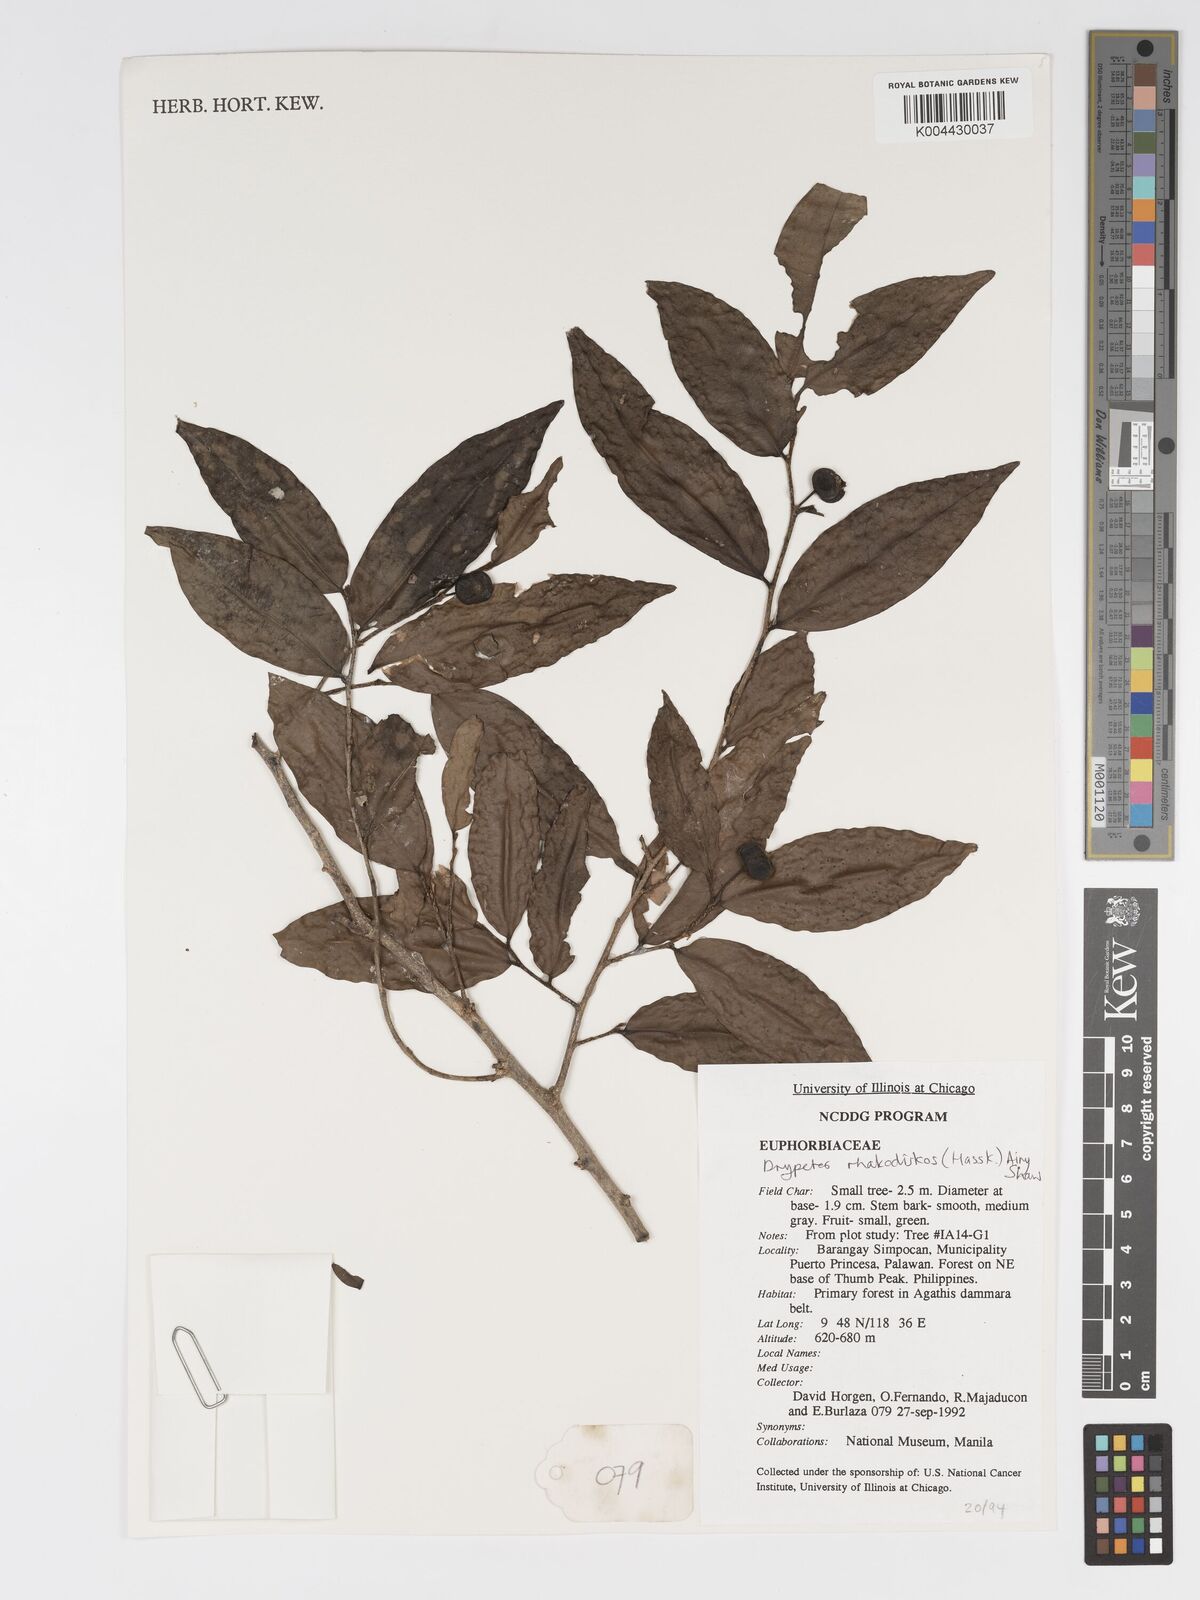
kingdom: Plantae
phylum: Tracheophyta
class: Magnoliopsida
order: Malpighiales
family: Putranjivaceae
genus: Drypetes
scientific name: Drypetes rhakodiskos
